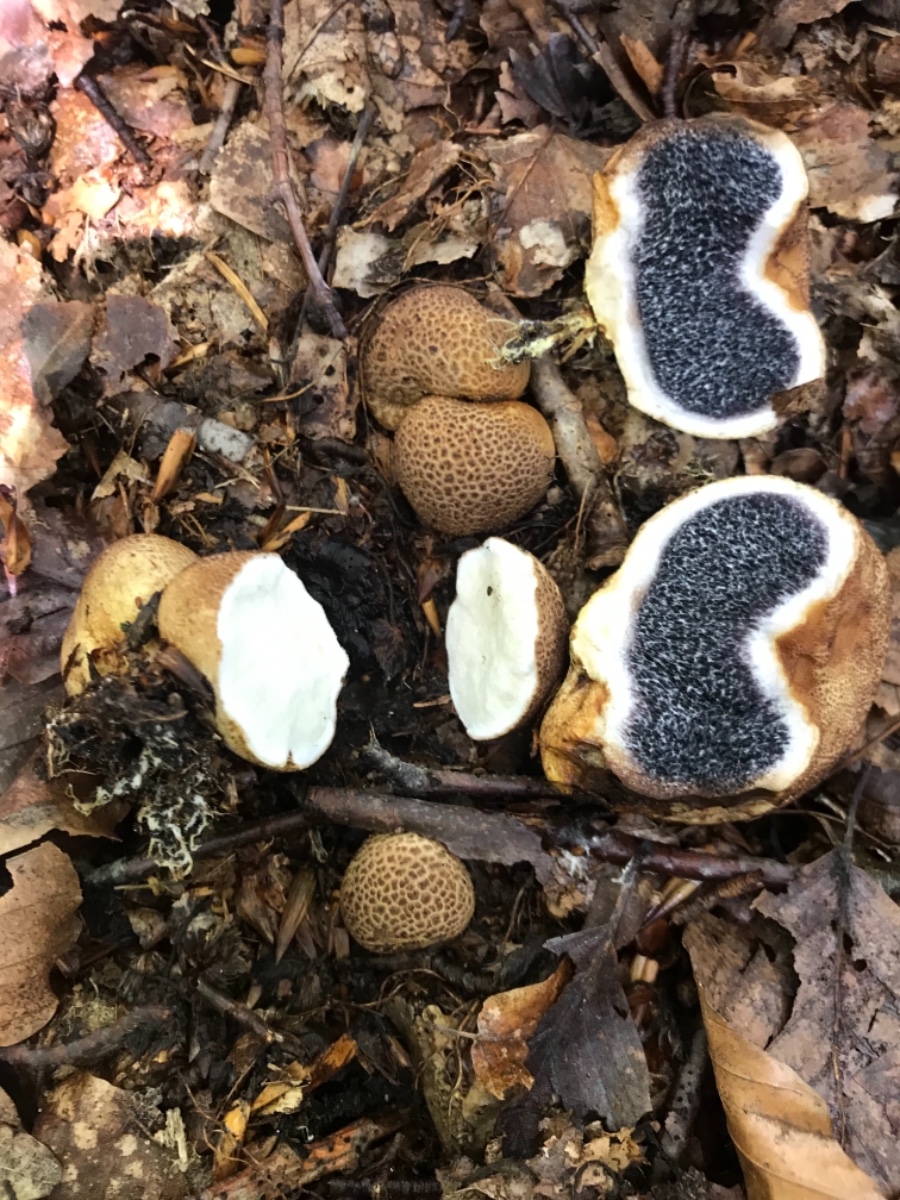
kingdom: Fungi
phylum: Basidiomycota
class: Agaricomycetes
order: Boletales
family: Sclerodermataceae
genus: Scleroderma
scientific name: Scleroderma citrinum
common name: almindelig bruskbold
